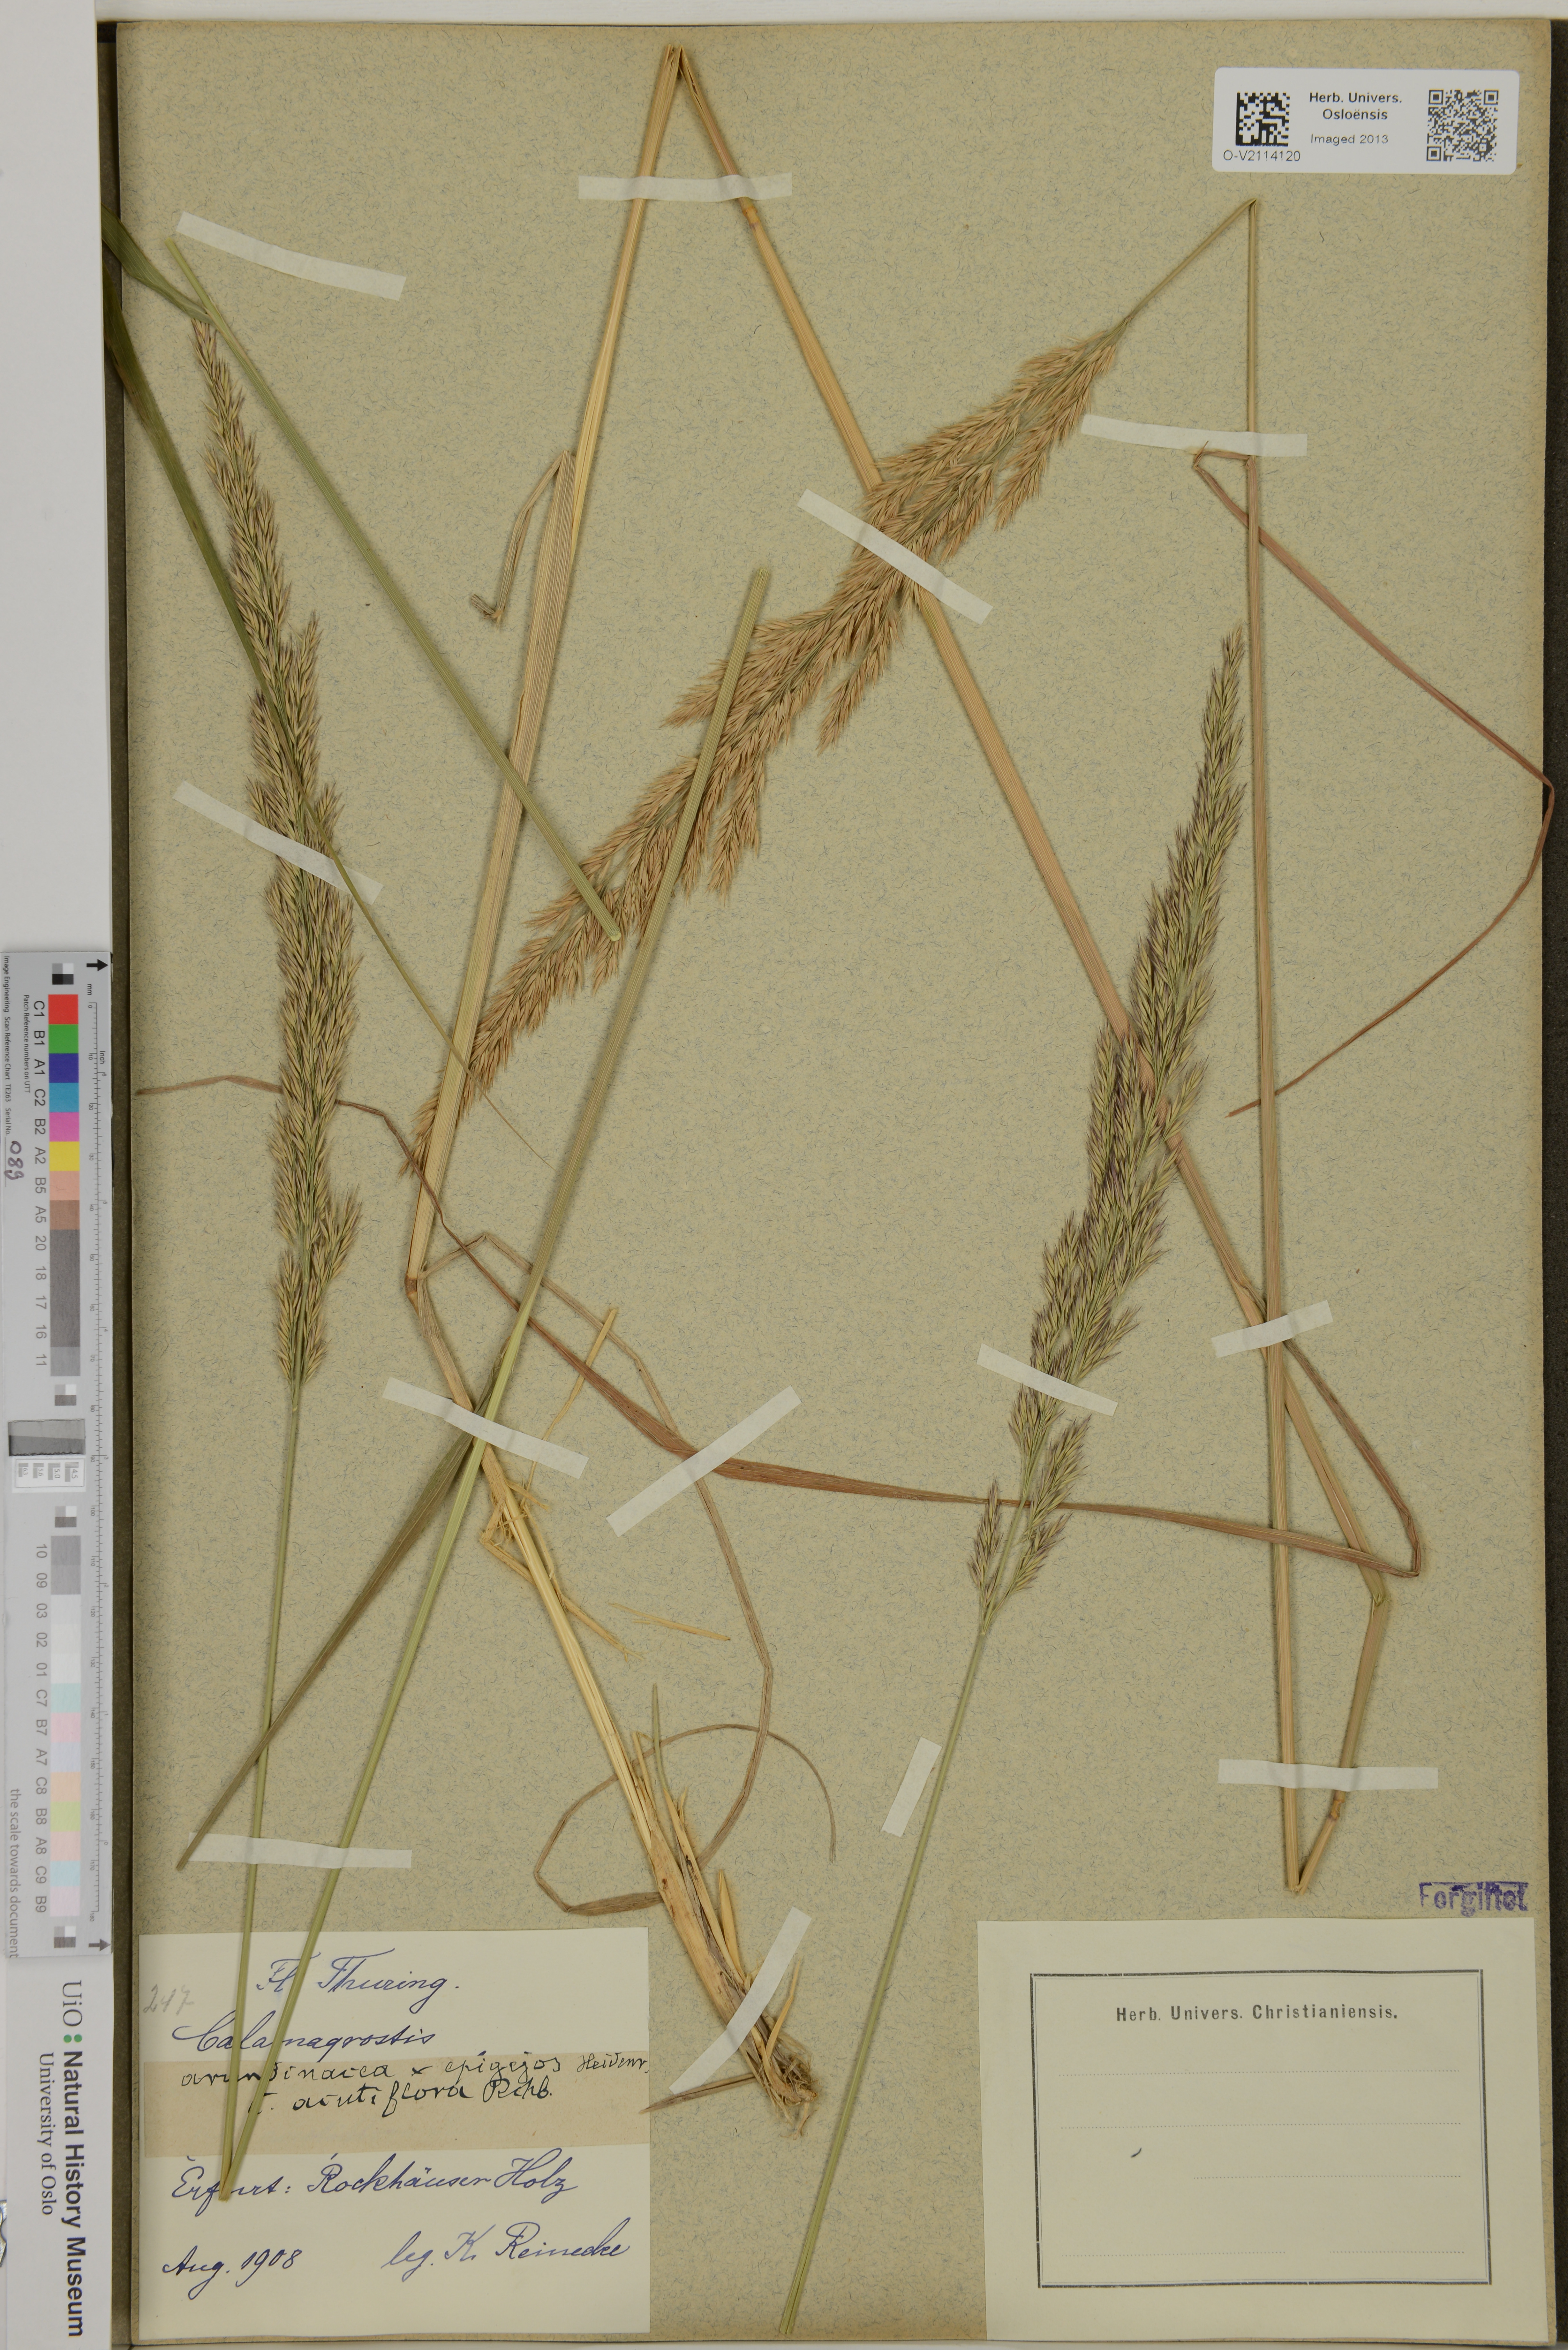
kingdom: Plantae
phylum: Tracheophyta
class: Liliopsida
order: Poales
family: Poaceae
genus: Calamagrostis
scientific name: Calamagrostis acutiflora
